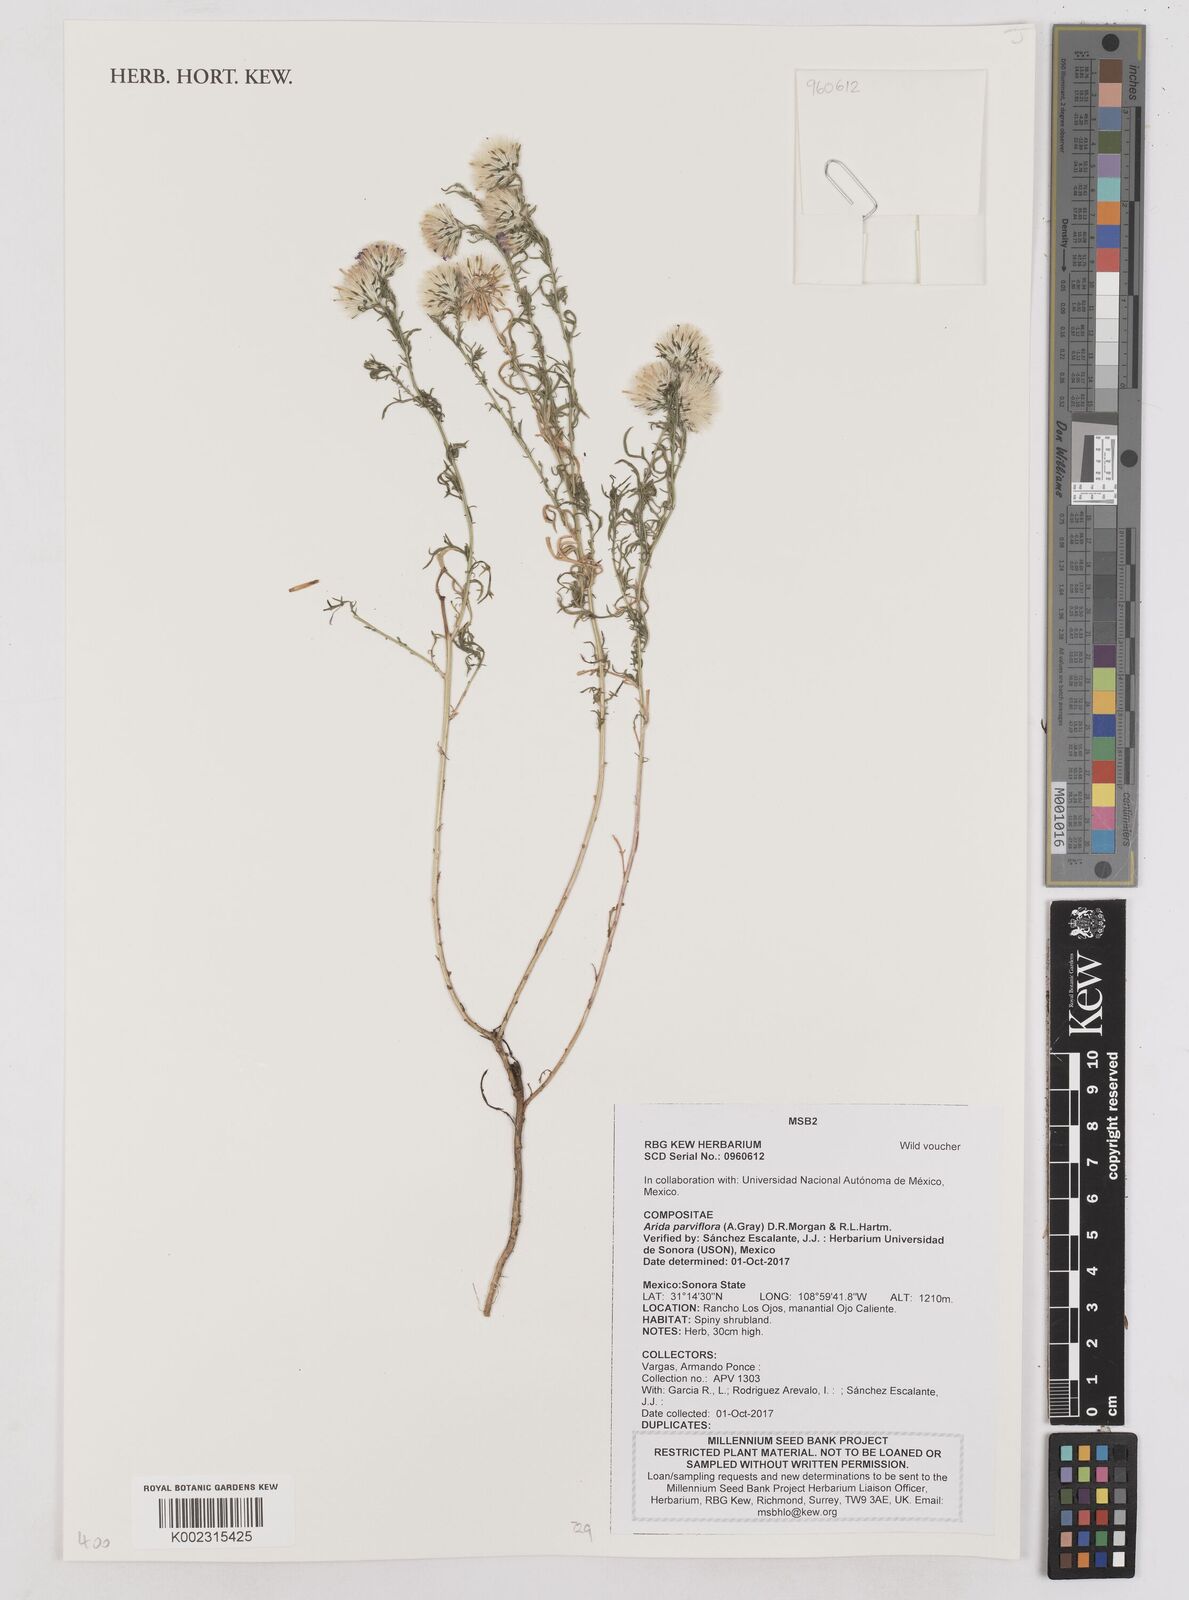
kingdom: Plantae
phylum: Tracheophyta
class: Magnoliopsida
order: Asterales
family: Asteraceae
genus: Leucosyris
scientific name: Leucosyris parviflora
